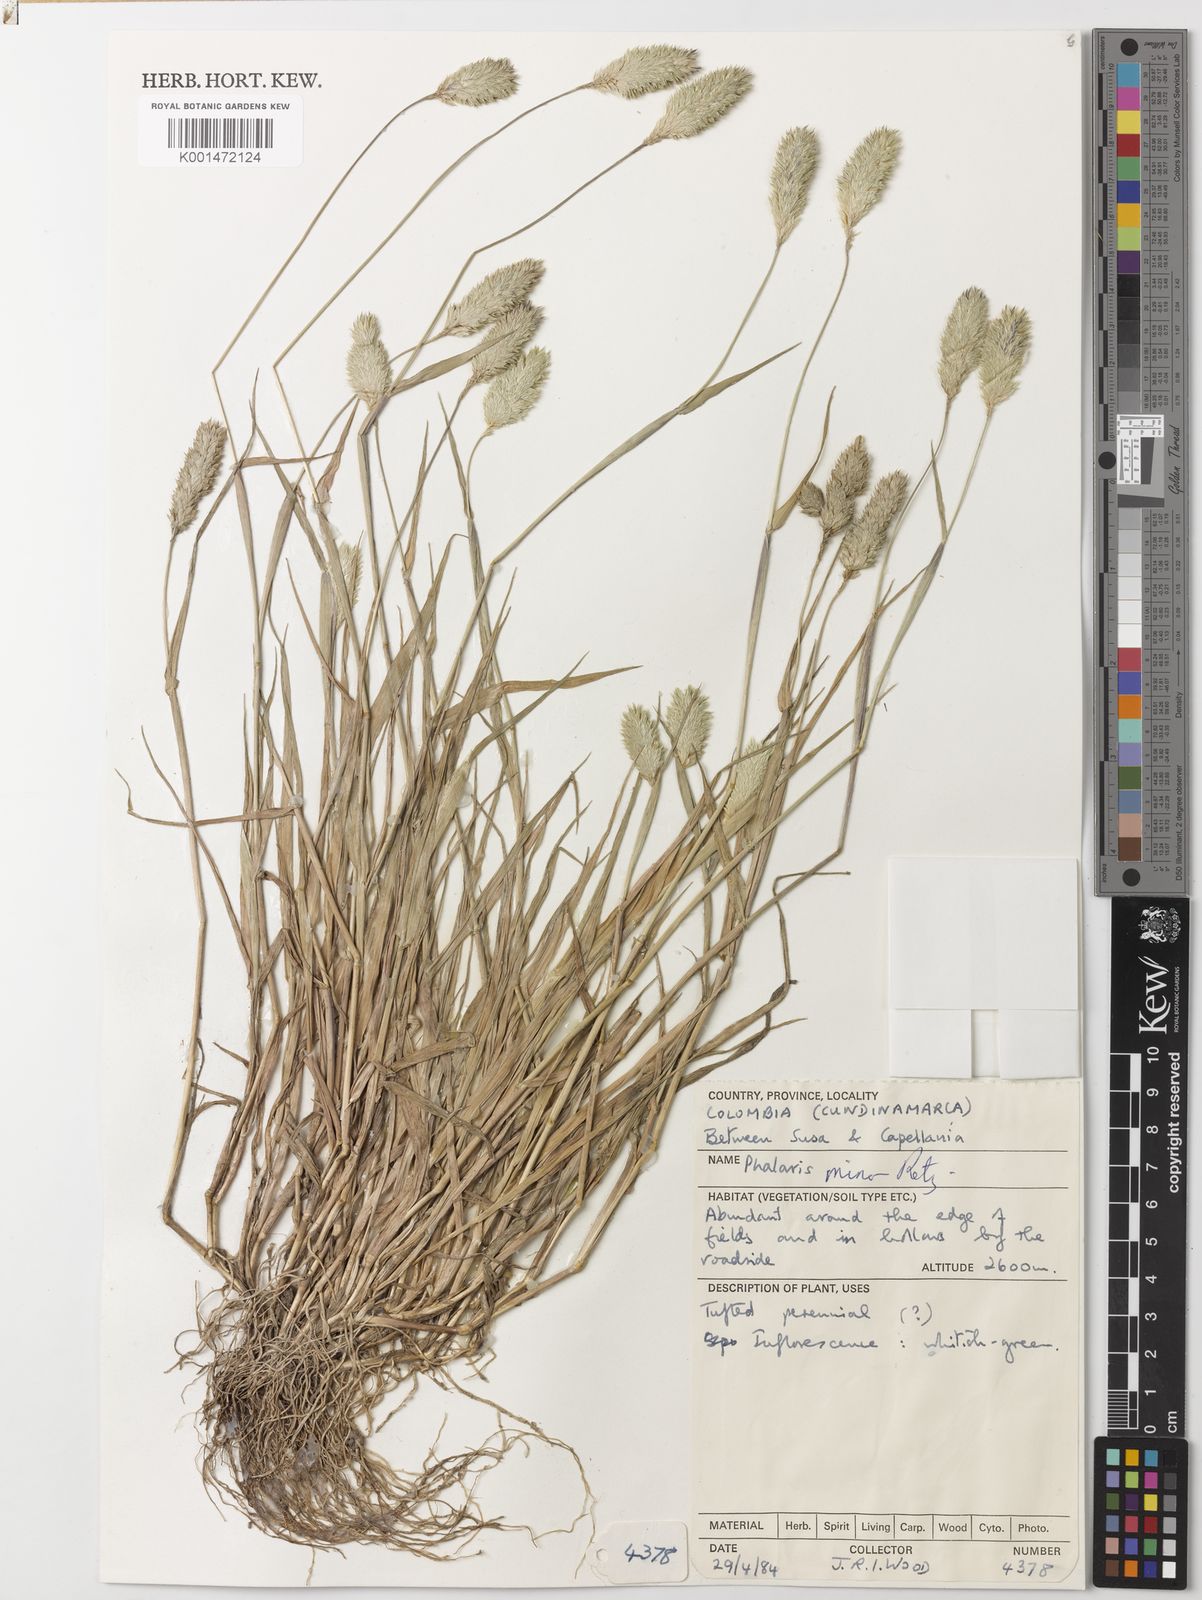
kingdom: Plantae
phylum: Tracheophyta
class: Liliopsida
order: Poales
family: Poaceae
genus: Phalaris
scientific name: Phalaris minor
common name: Littleseed canarygrass
